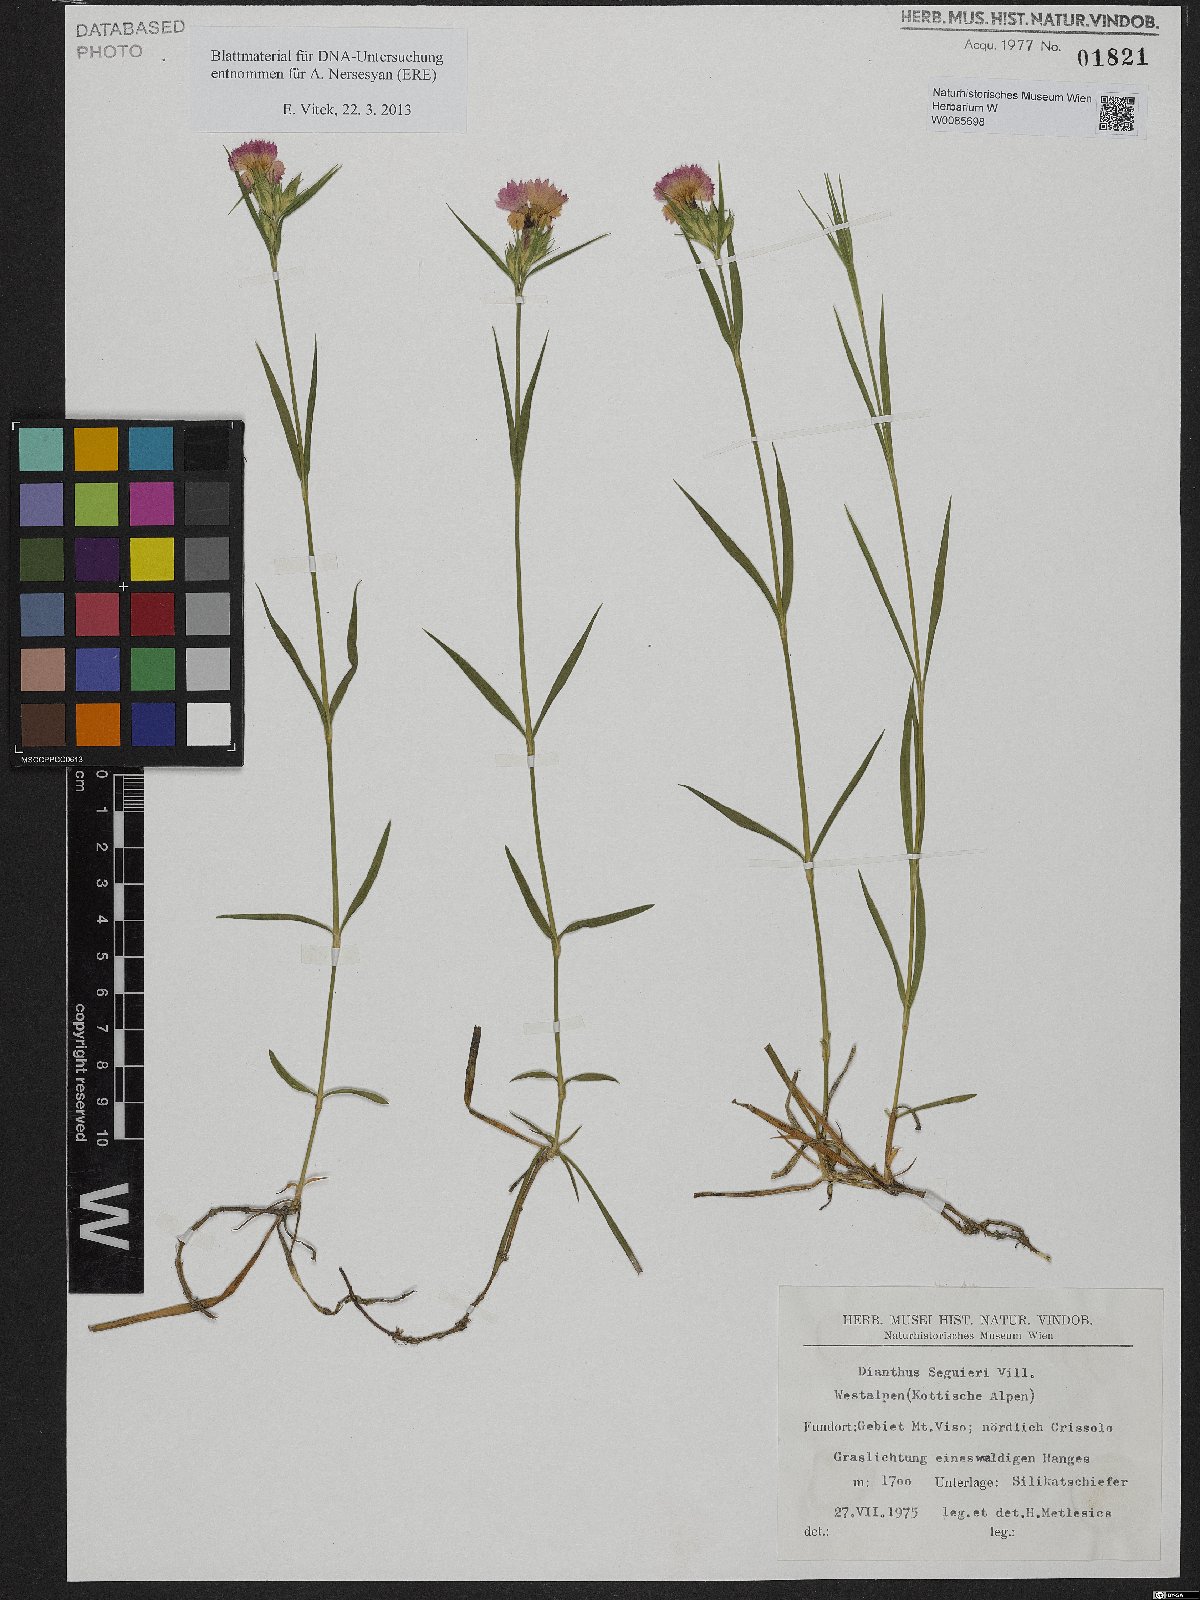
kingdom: Plantae
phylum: Tracheophyta
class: Magnoliopsida
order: Caryophyllales
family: Caryophyllaceae
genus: Dianthus
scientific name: Dianthus seguieri
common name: Ragged pink
